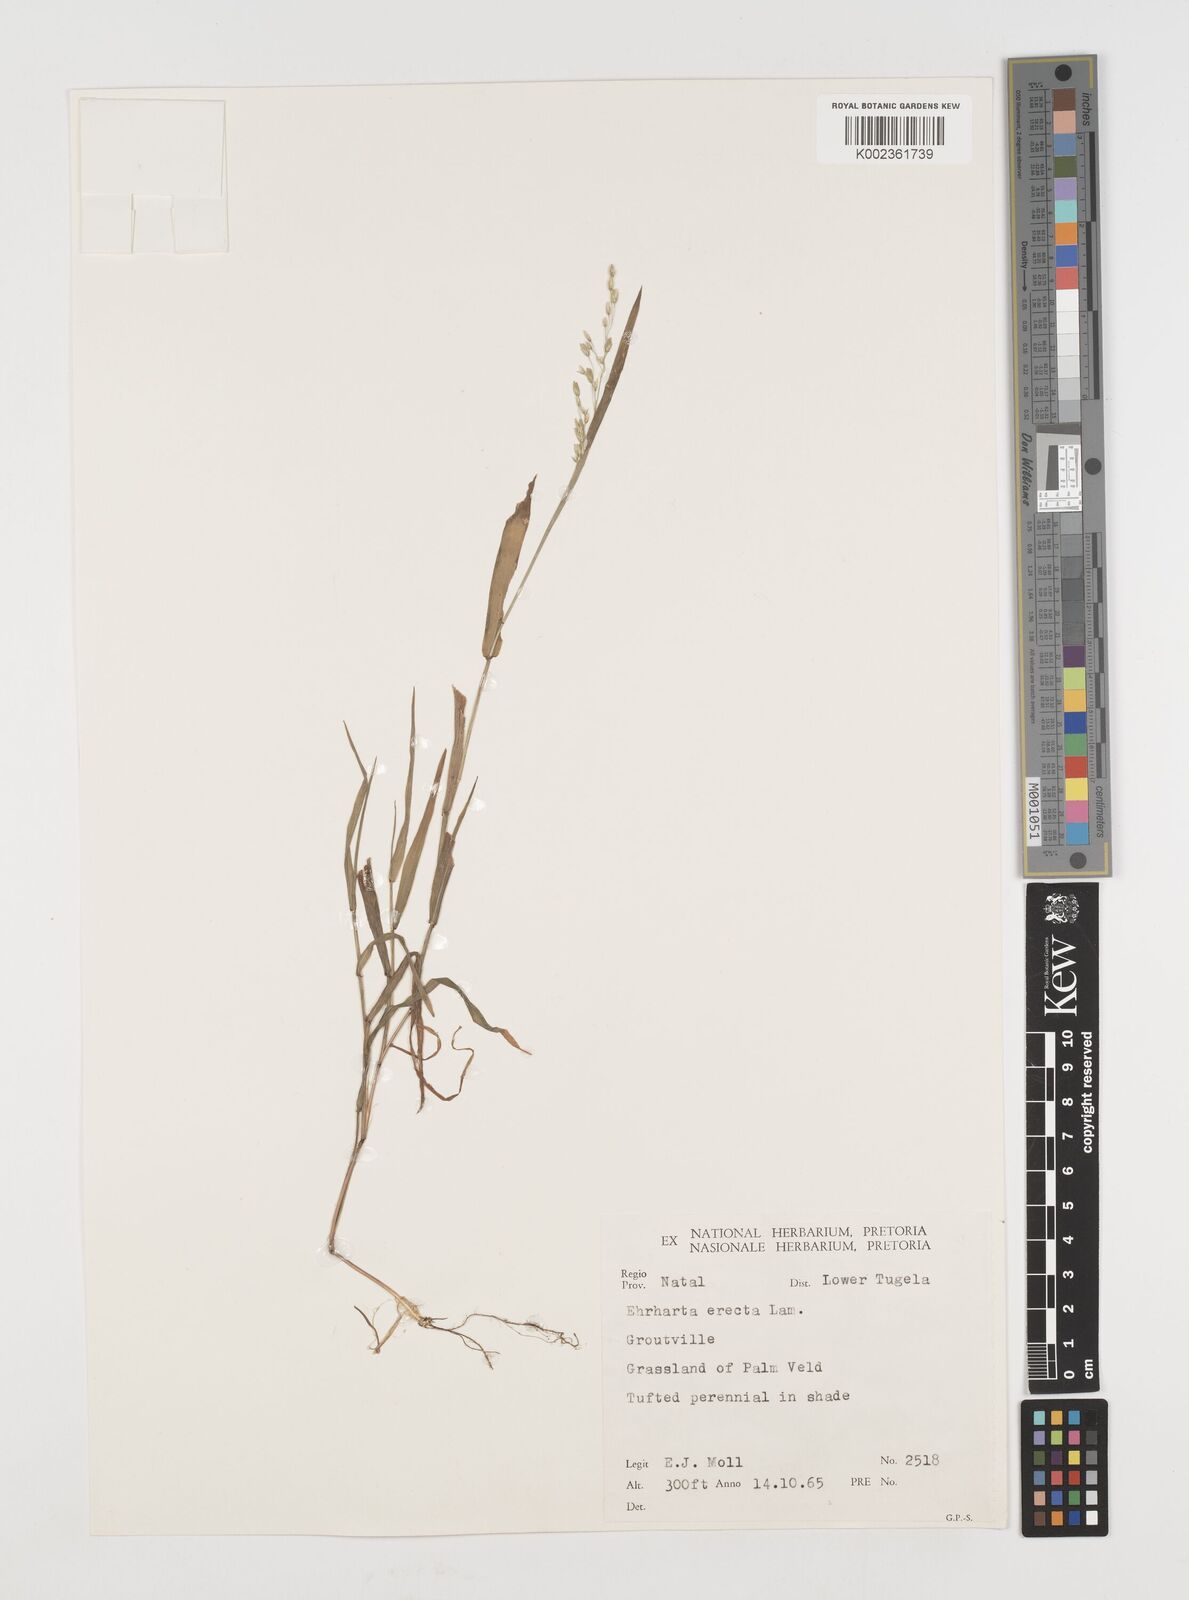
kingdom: Plantae
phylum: Tracheophyta
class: Liliopsida
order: Poales
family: Poaceae
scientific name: Poaceae
